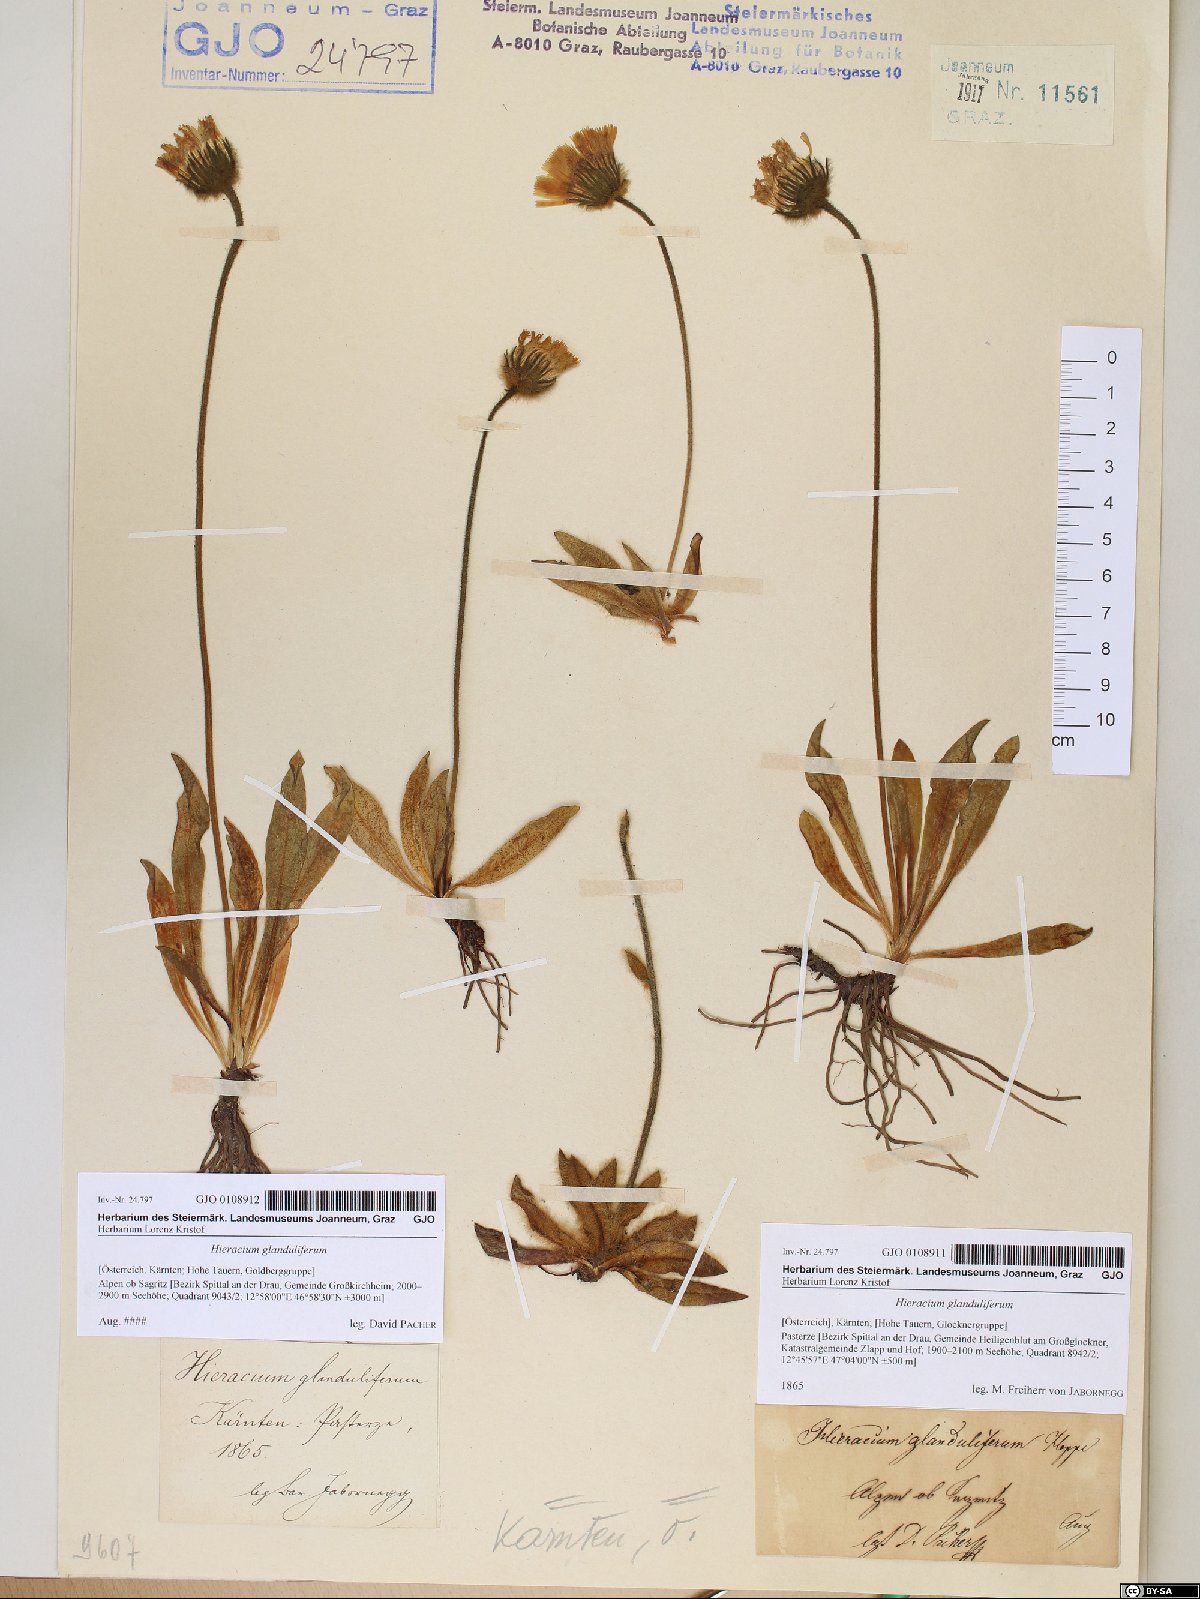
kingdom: Plantae
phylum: Tracheophyta
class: Magnoliopsida
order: Asterales
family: Asteraceae
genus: Hieracium
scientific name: Hieracium piliferum
